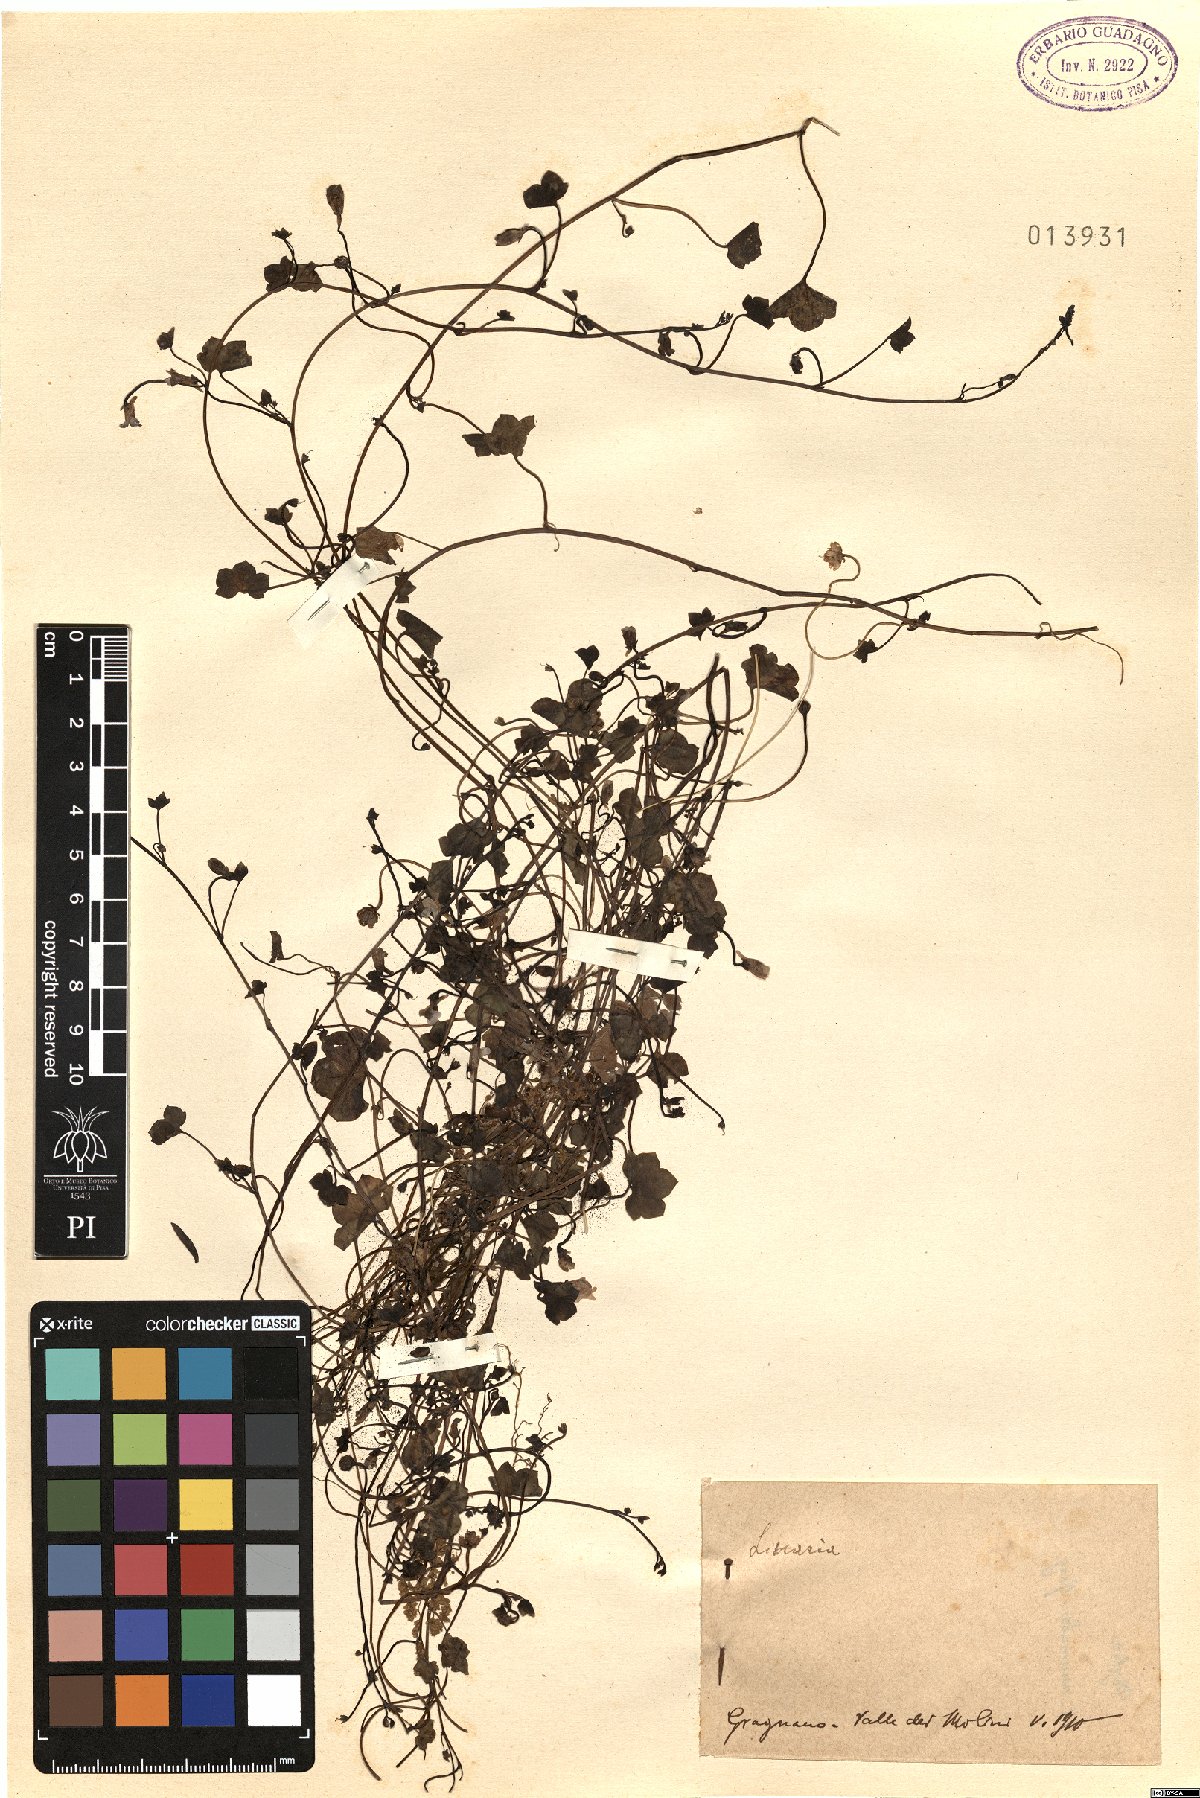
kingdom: Plantae
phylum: Tracheophyta
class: Magnoliopsida
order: Lamiales
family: Plantaginaceae
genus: Linaria
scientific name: Linaria
